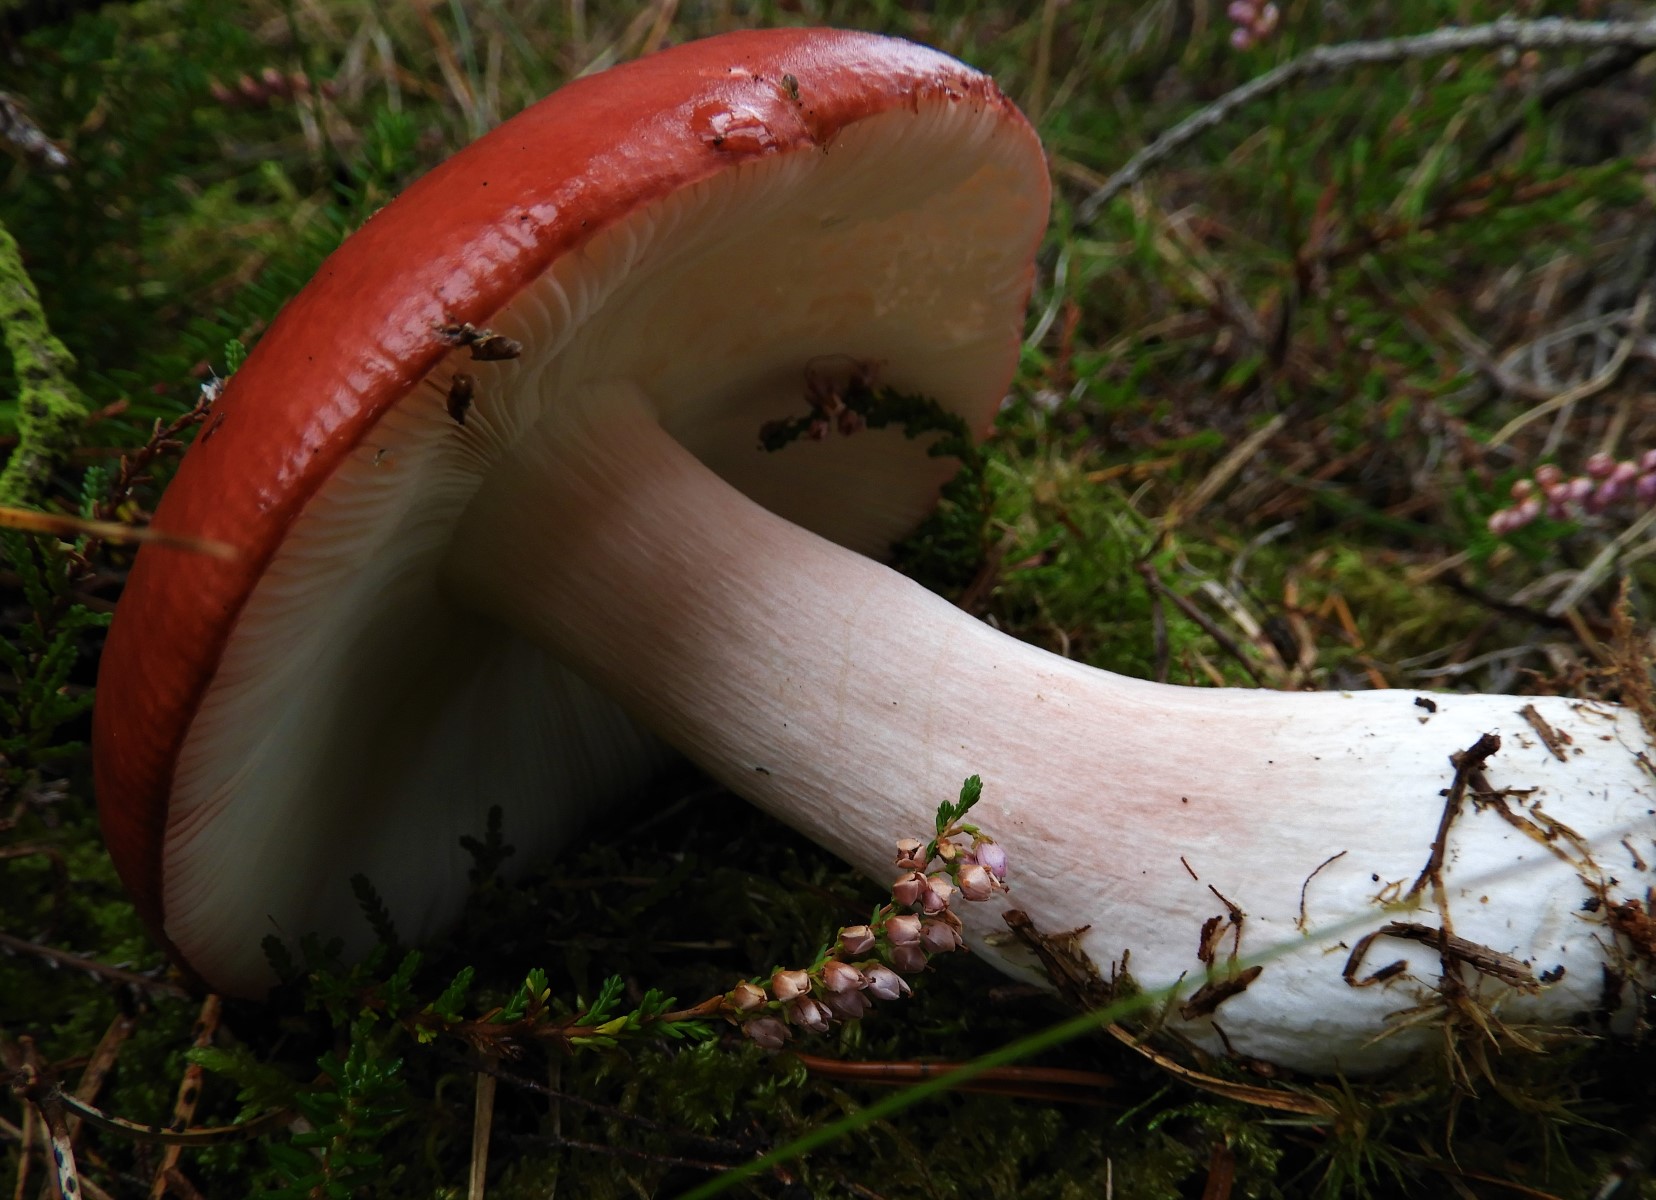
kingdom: Fungi
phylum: Basidiomycota
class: Agaricomycetes
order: Russulales
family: Russulaceae
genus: Russula
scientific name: Russula paludosa
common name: prægtig skørhat
